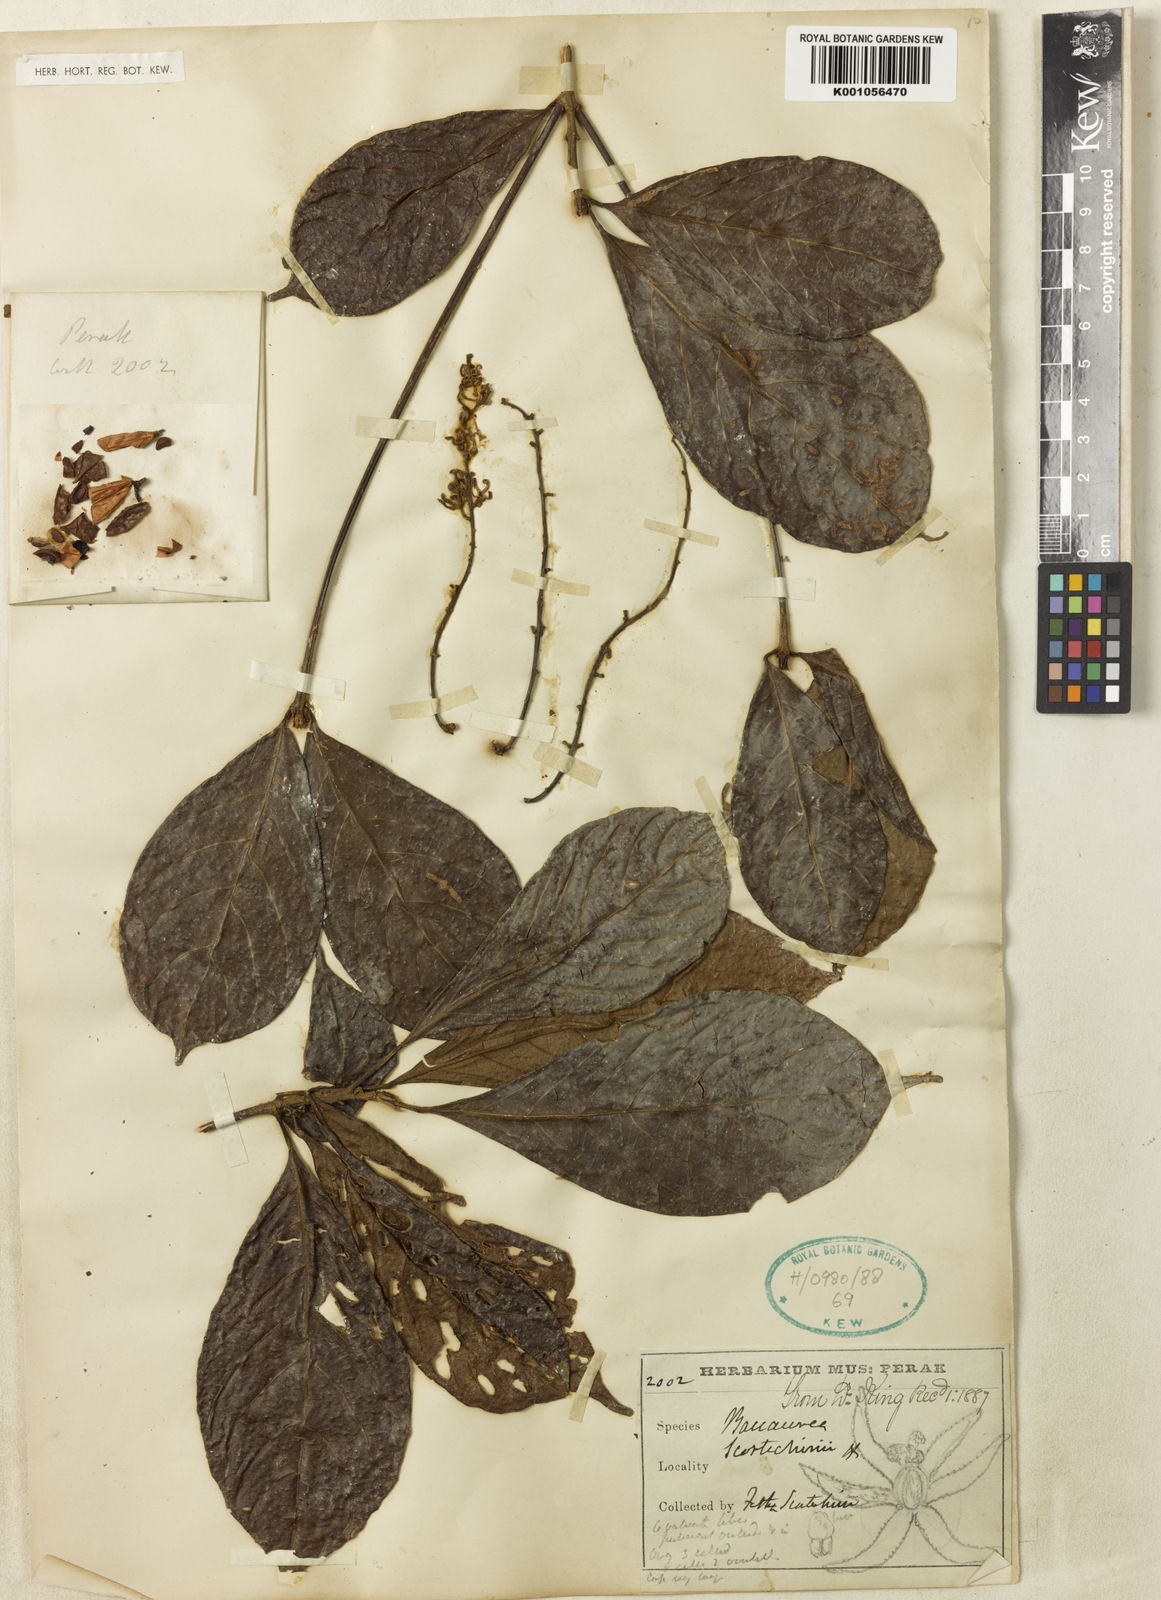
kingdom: Plantae
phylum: Tracheophyta
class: Magnoliopsida
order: Malpighiales
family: Phyllanthaceae
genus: Baccaurea
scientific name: Baccaurea
